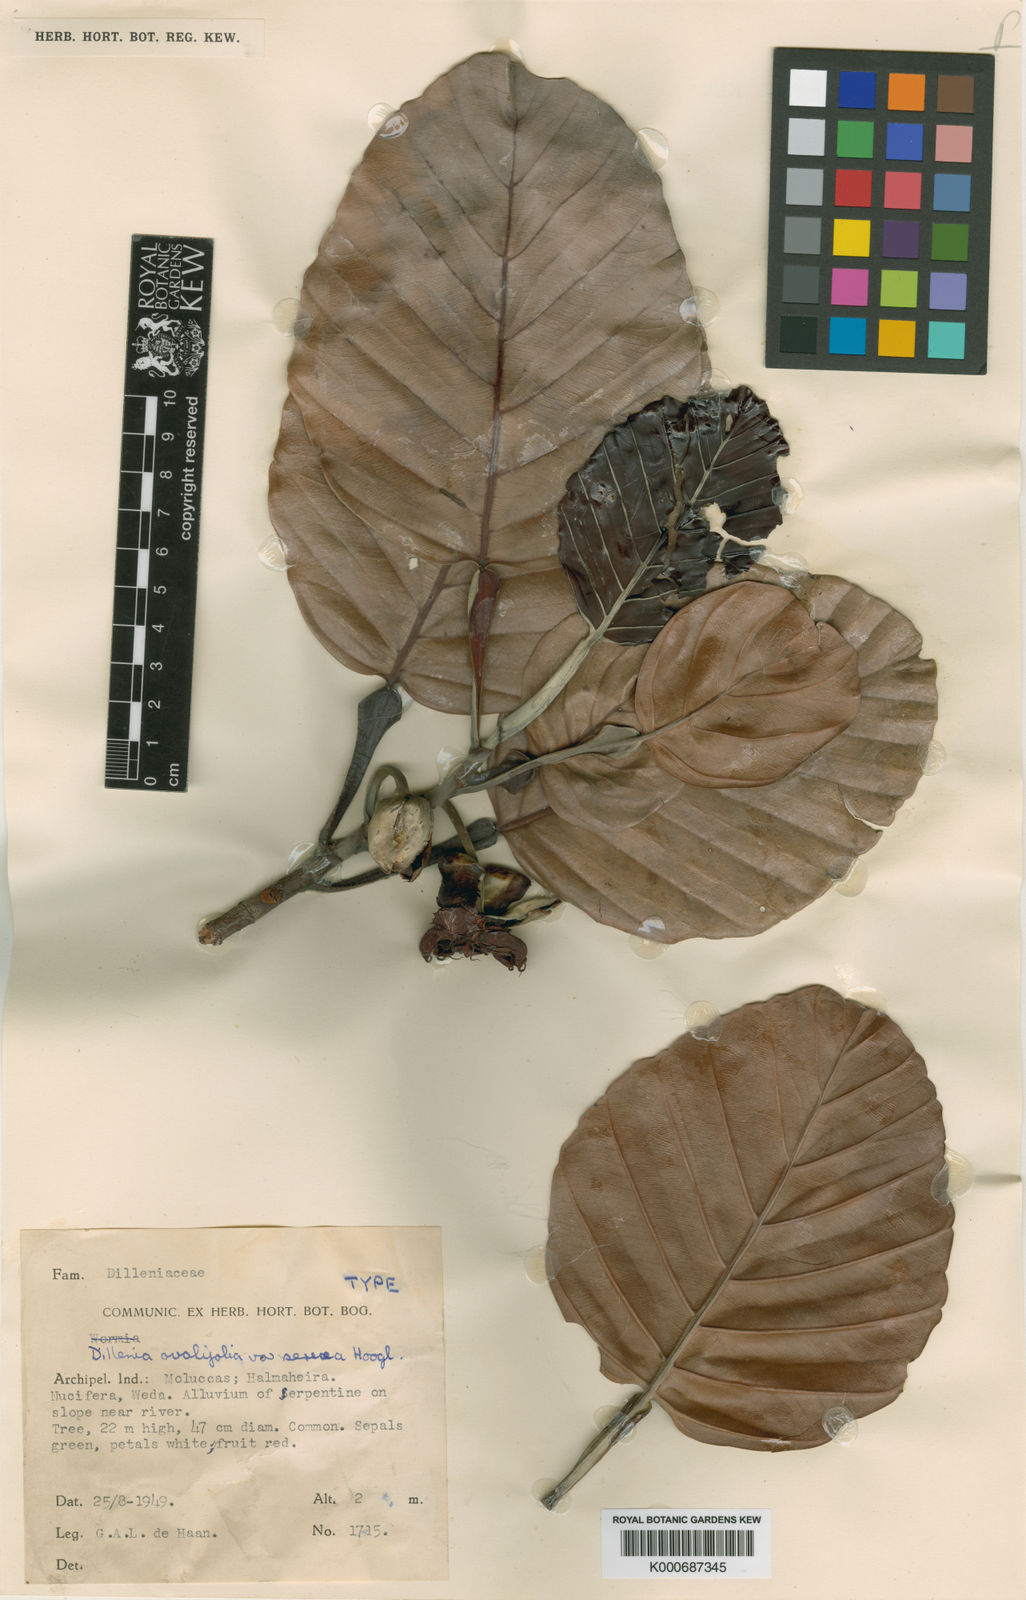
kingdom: Plantae
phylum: Tracheophyta
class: Magnoliopsida
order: Dilleniales
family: Dilleniaceae
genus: Dillenia
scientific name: Dillenia ovalifolia
